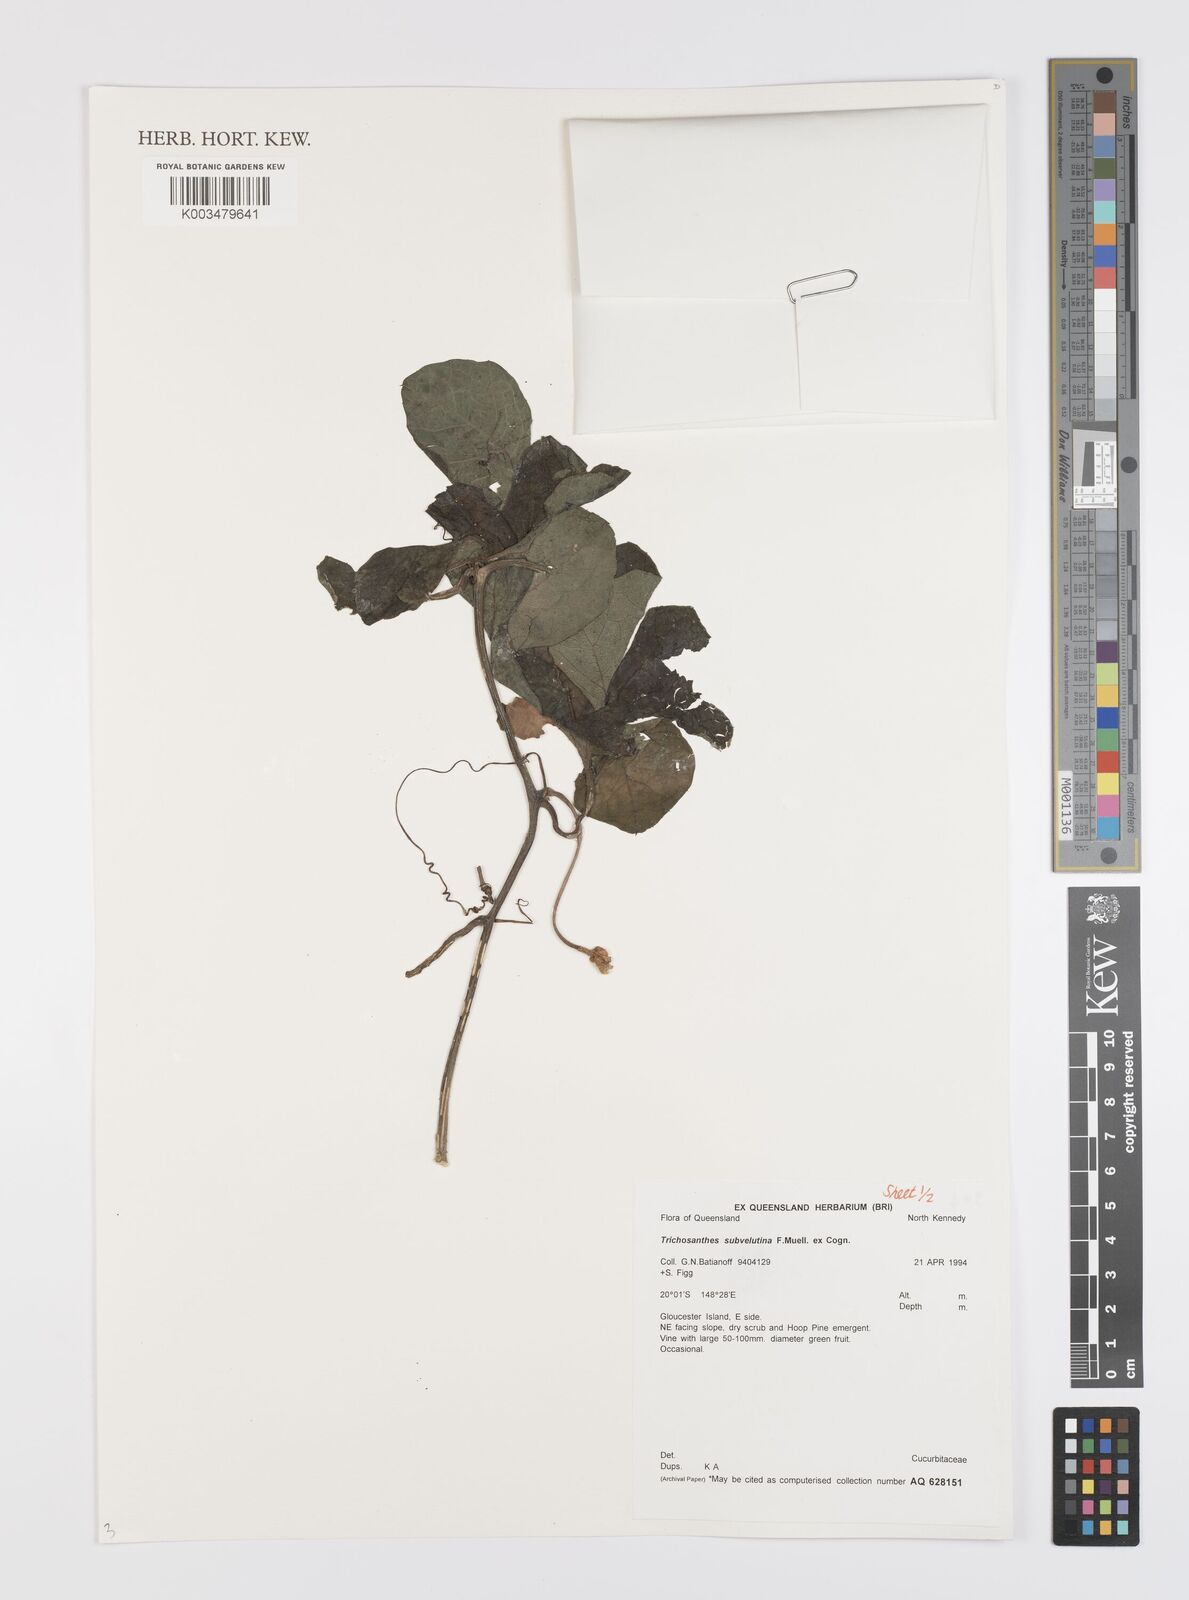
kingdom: Plantae
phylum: Tracheophyta
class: Magnoliopsida
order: Cucurbitales
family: Cucurbitaceae
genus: Trichosanthes
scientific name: Trichosanthes subvelutina
